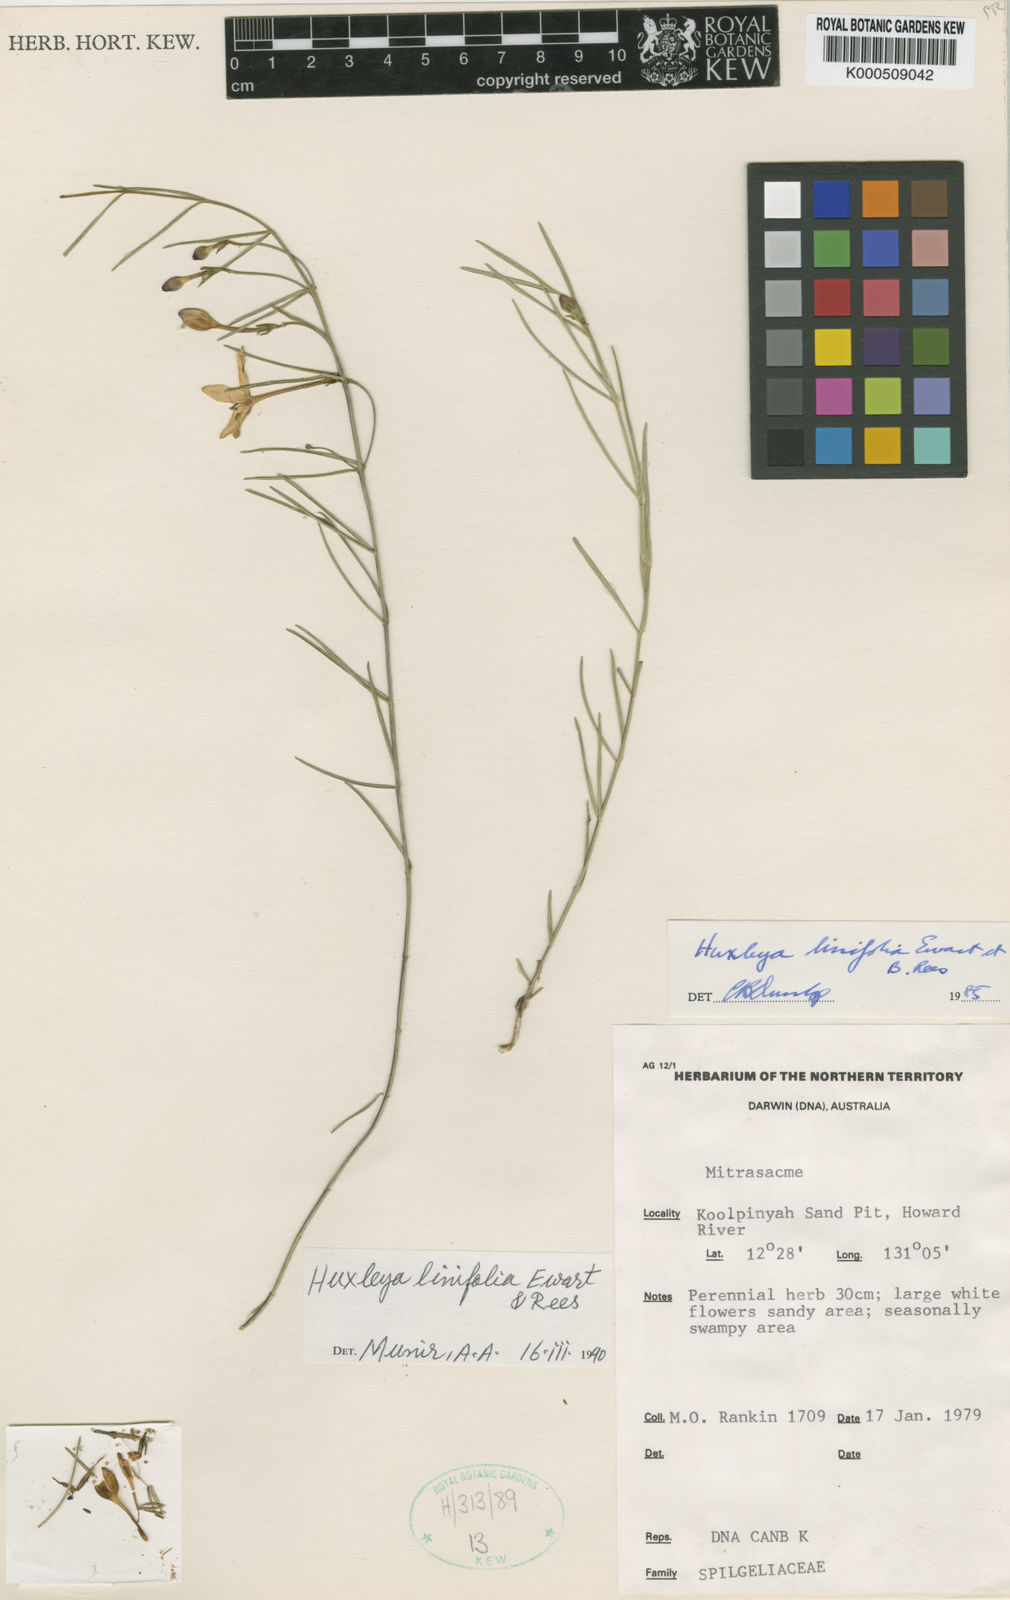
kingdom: Plantae
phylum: Tracheophyta
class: Magnoliopsida
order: Lamiales
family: Lamiaceae
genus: Volkameria
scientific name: Volkameria
